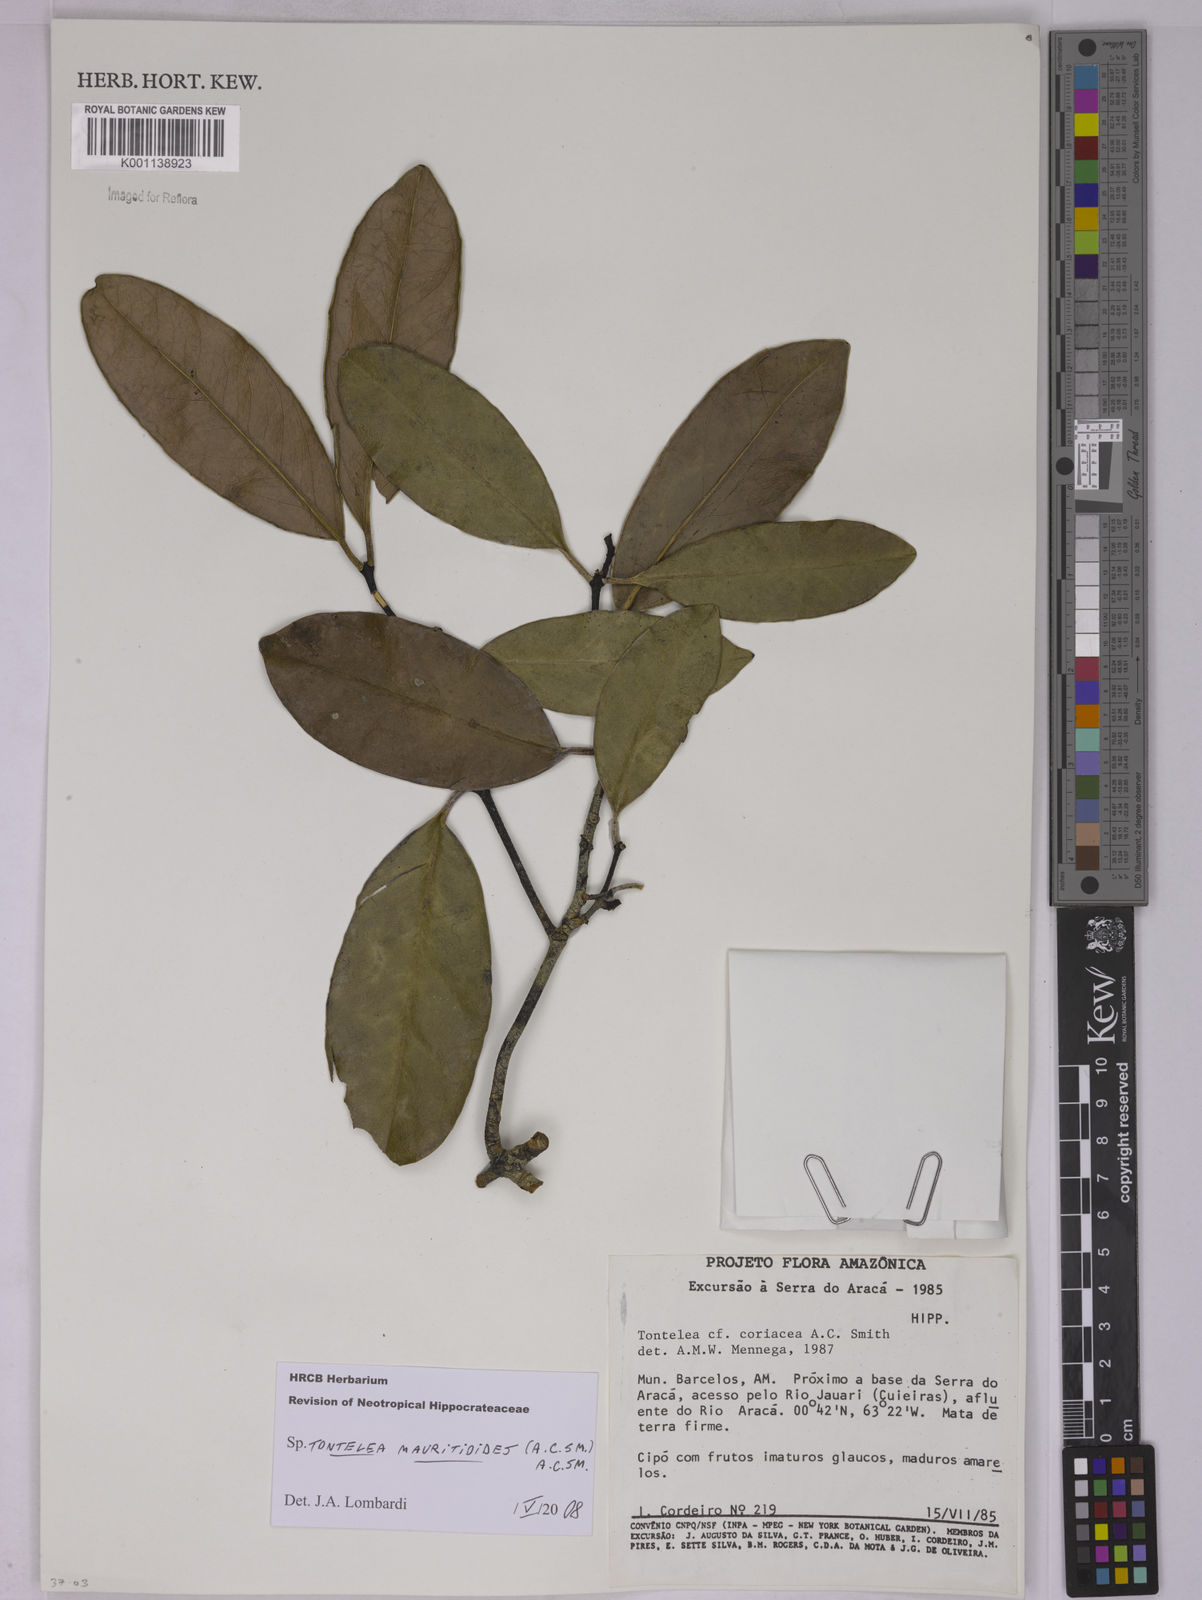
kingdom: Plantae
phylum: Tracheophyta
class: Magnoliopsida
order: Celastrales
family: Celastraceae
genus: Tontelea
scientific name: Tontelea mauritioides
